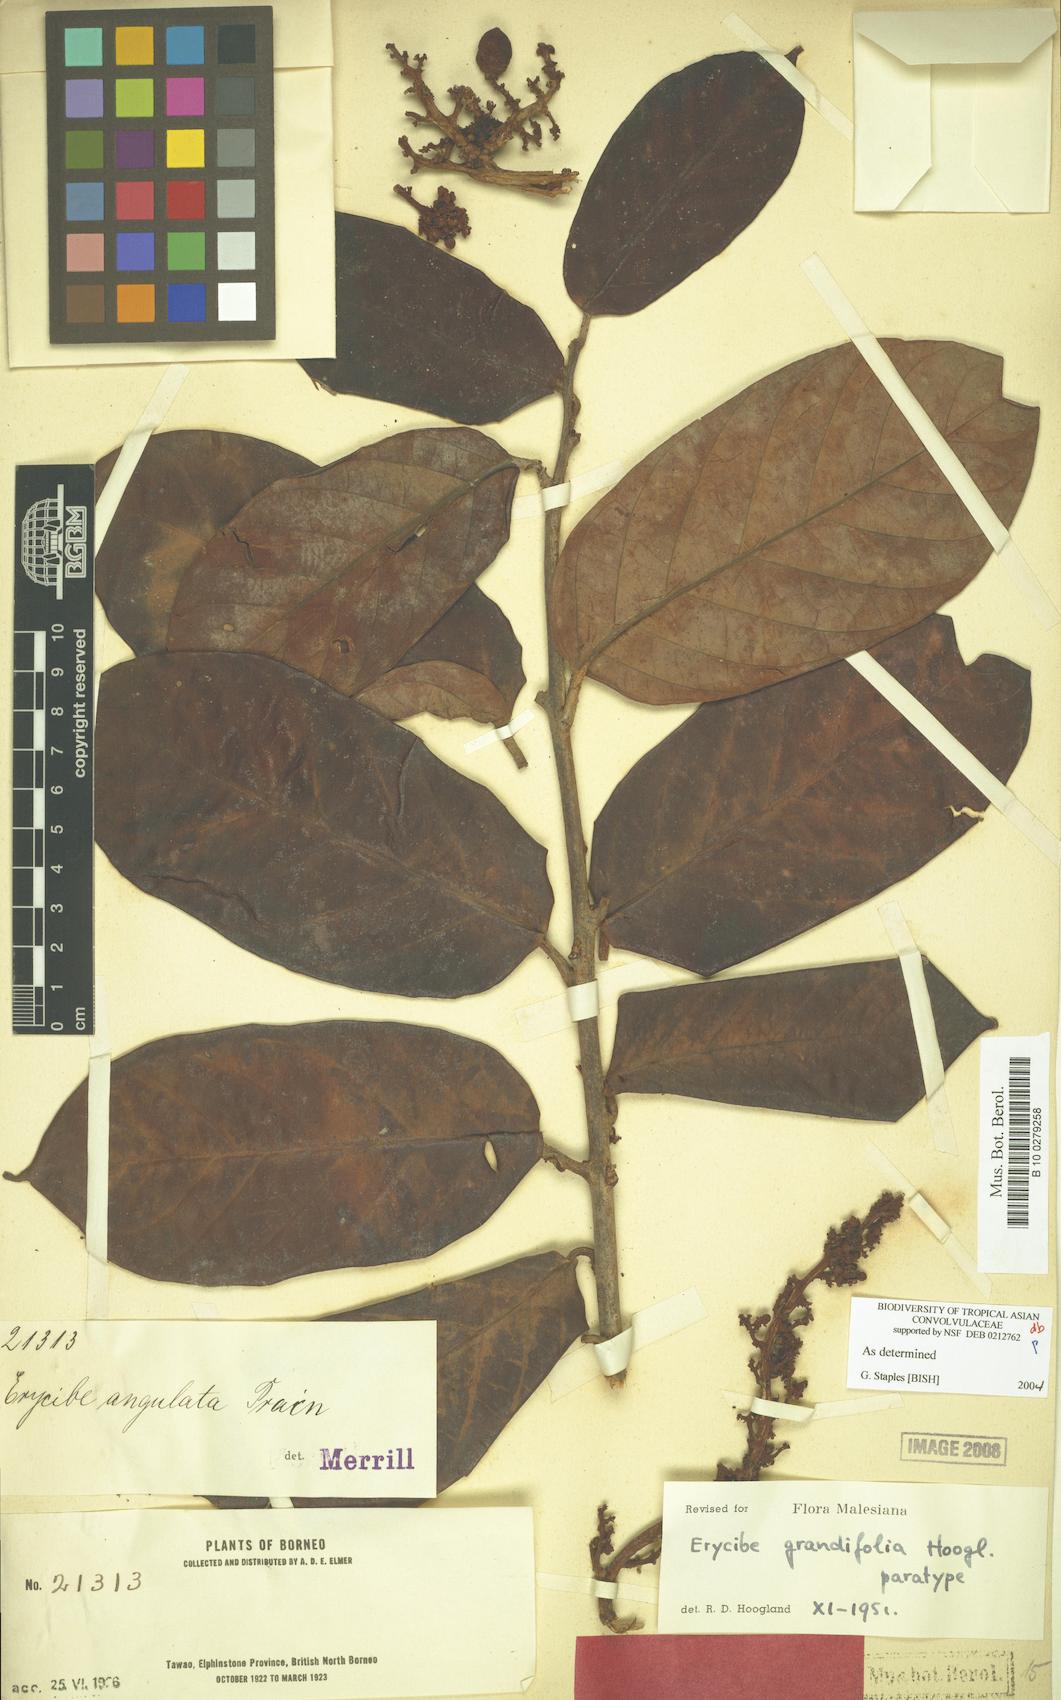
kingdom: Plantae
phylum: Tracheophyta
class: Magnoliopsida
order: Solanales
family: Convolvulaceae
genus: Erycibe
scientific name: Erycibe grandifolia
